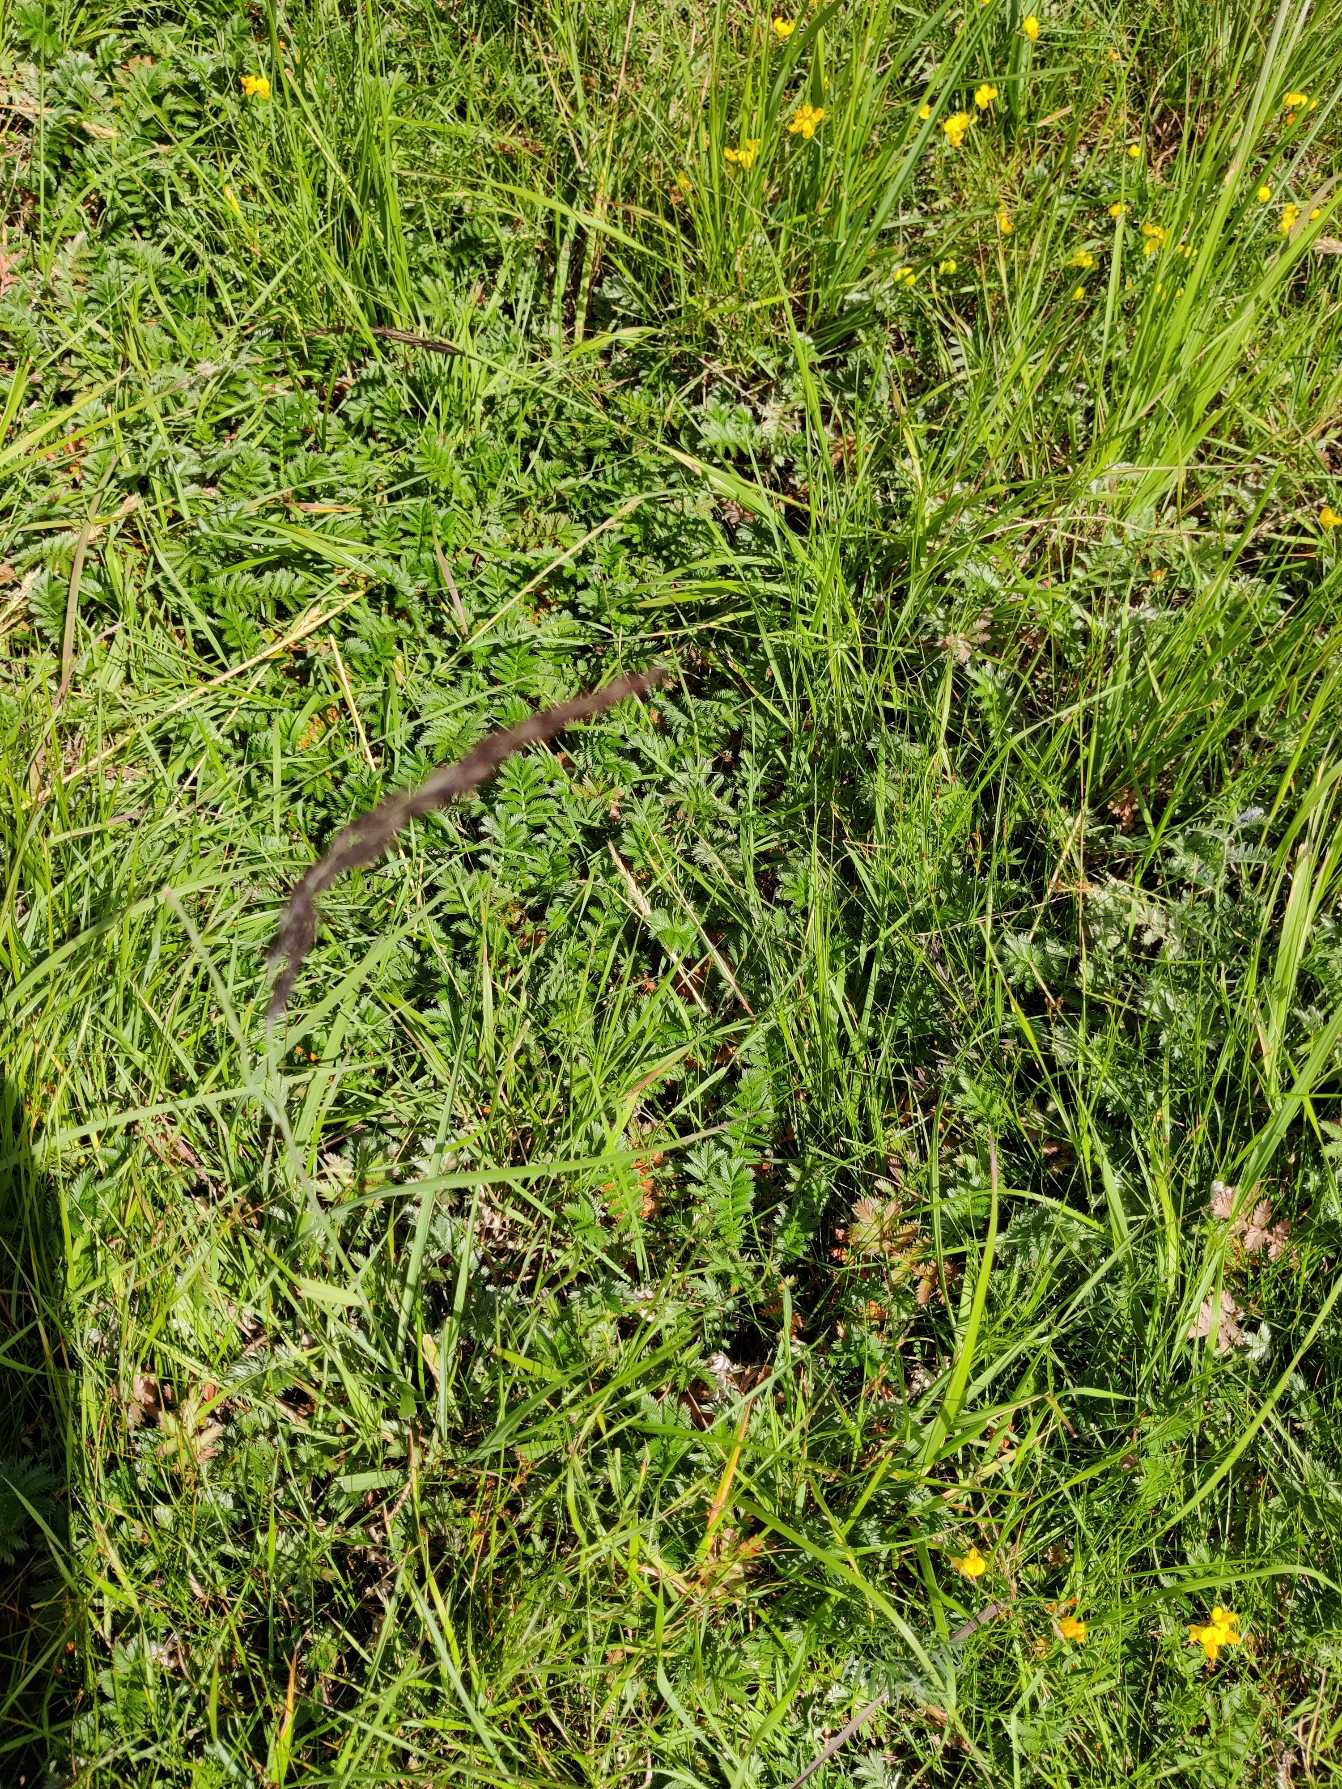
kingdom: Plantae
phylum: Tracheophyta
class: Magnoliopsida
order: Rosales
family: Rosaceae
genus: Argentina
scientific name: Argentina anserina
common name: Gåsepotentil
